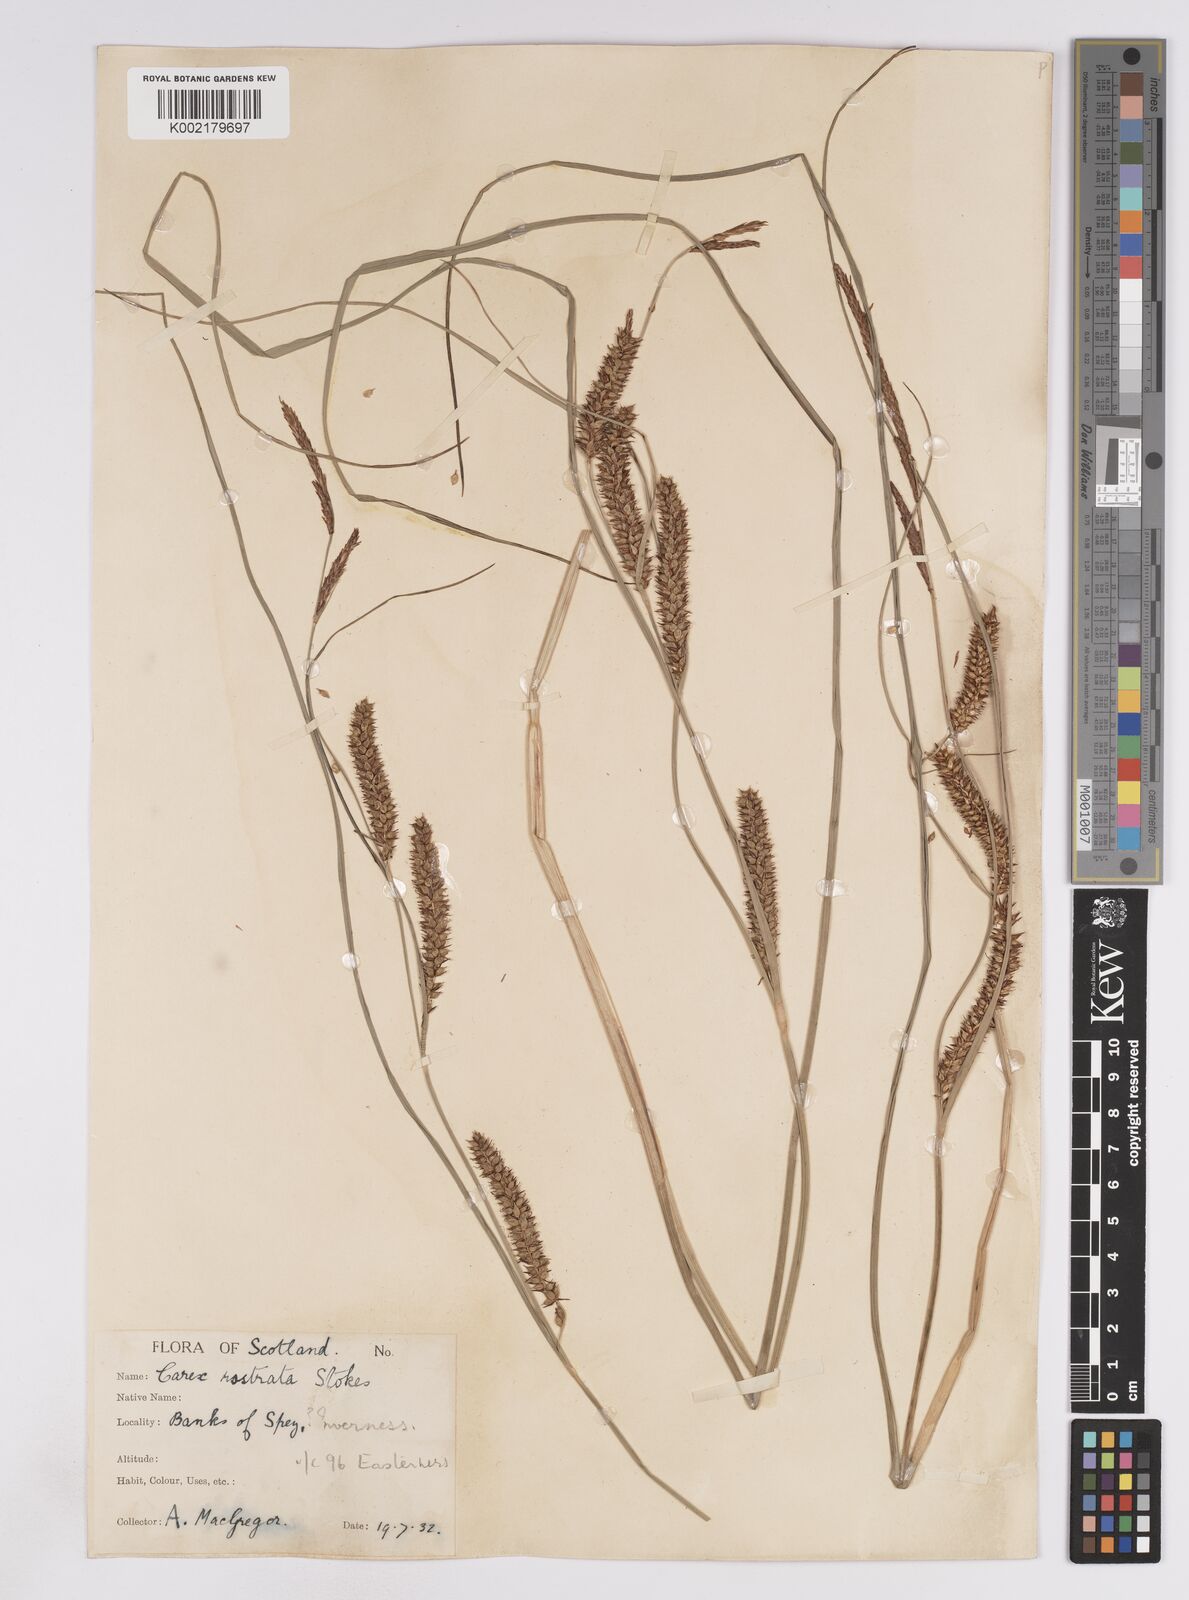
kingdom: Plantae
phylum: Tracheophyta
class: Liliopsida
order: Poales
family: Cyperaceae
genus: Carex
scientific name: Carex rostrata
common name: Bottle sedge
